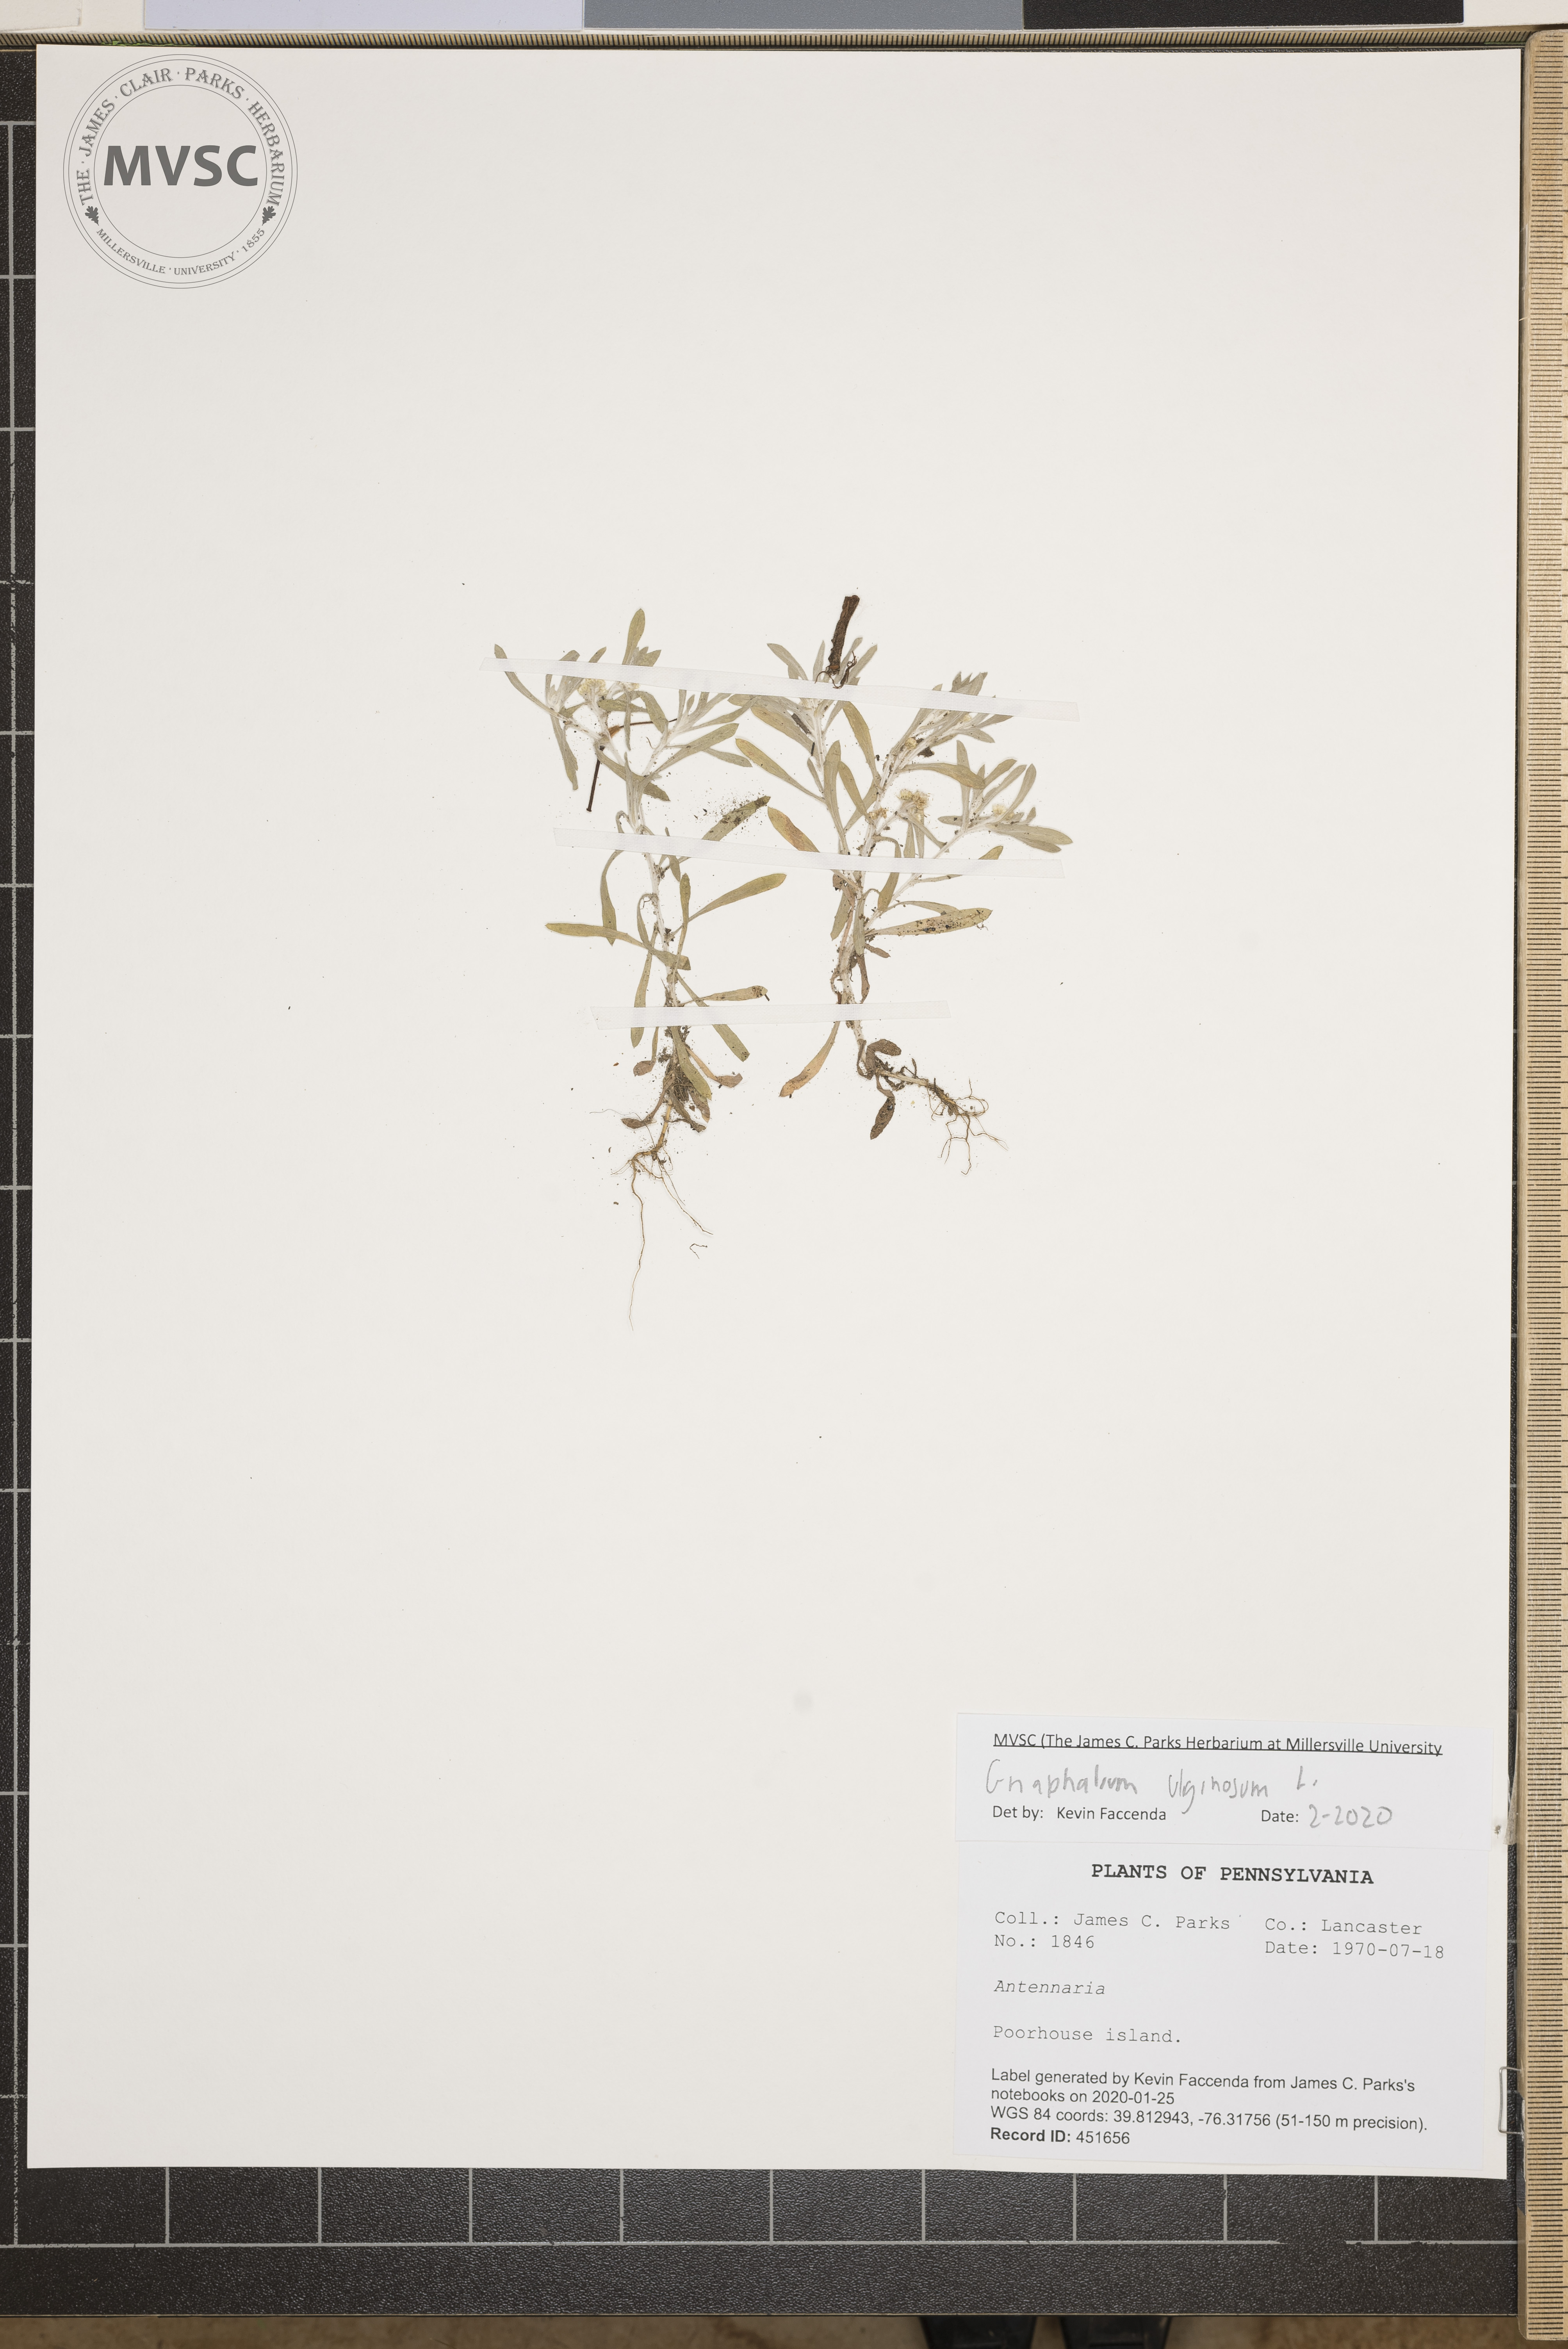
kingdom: Plantae
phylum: Tracheophyta
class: Magnoliopsida
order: Asterales
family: Asteraceae
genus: Gnaphalium
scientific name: Gnaphalium uliginosum
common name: Marsh cudweed
